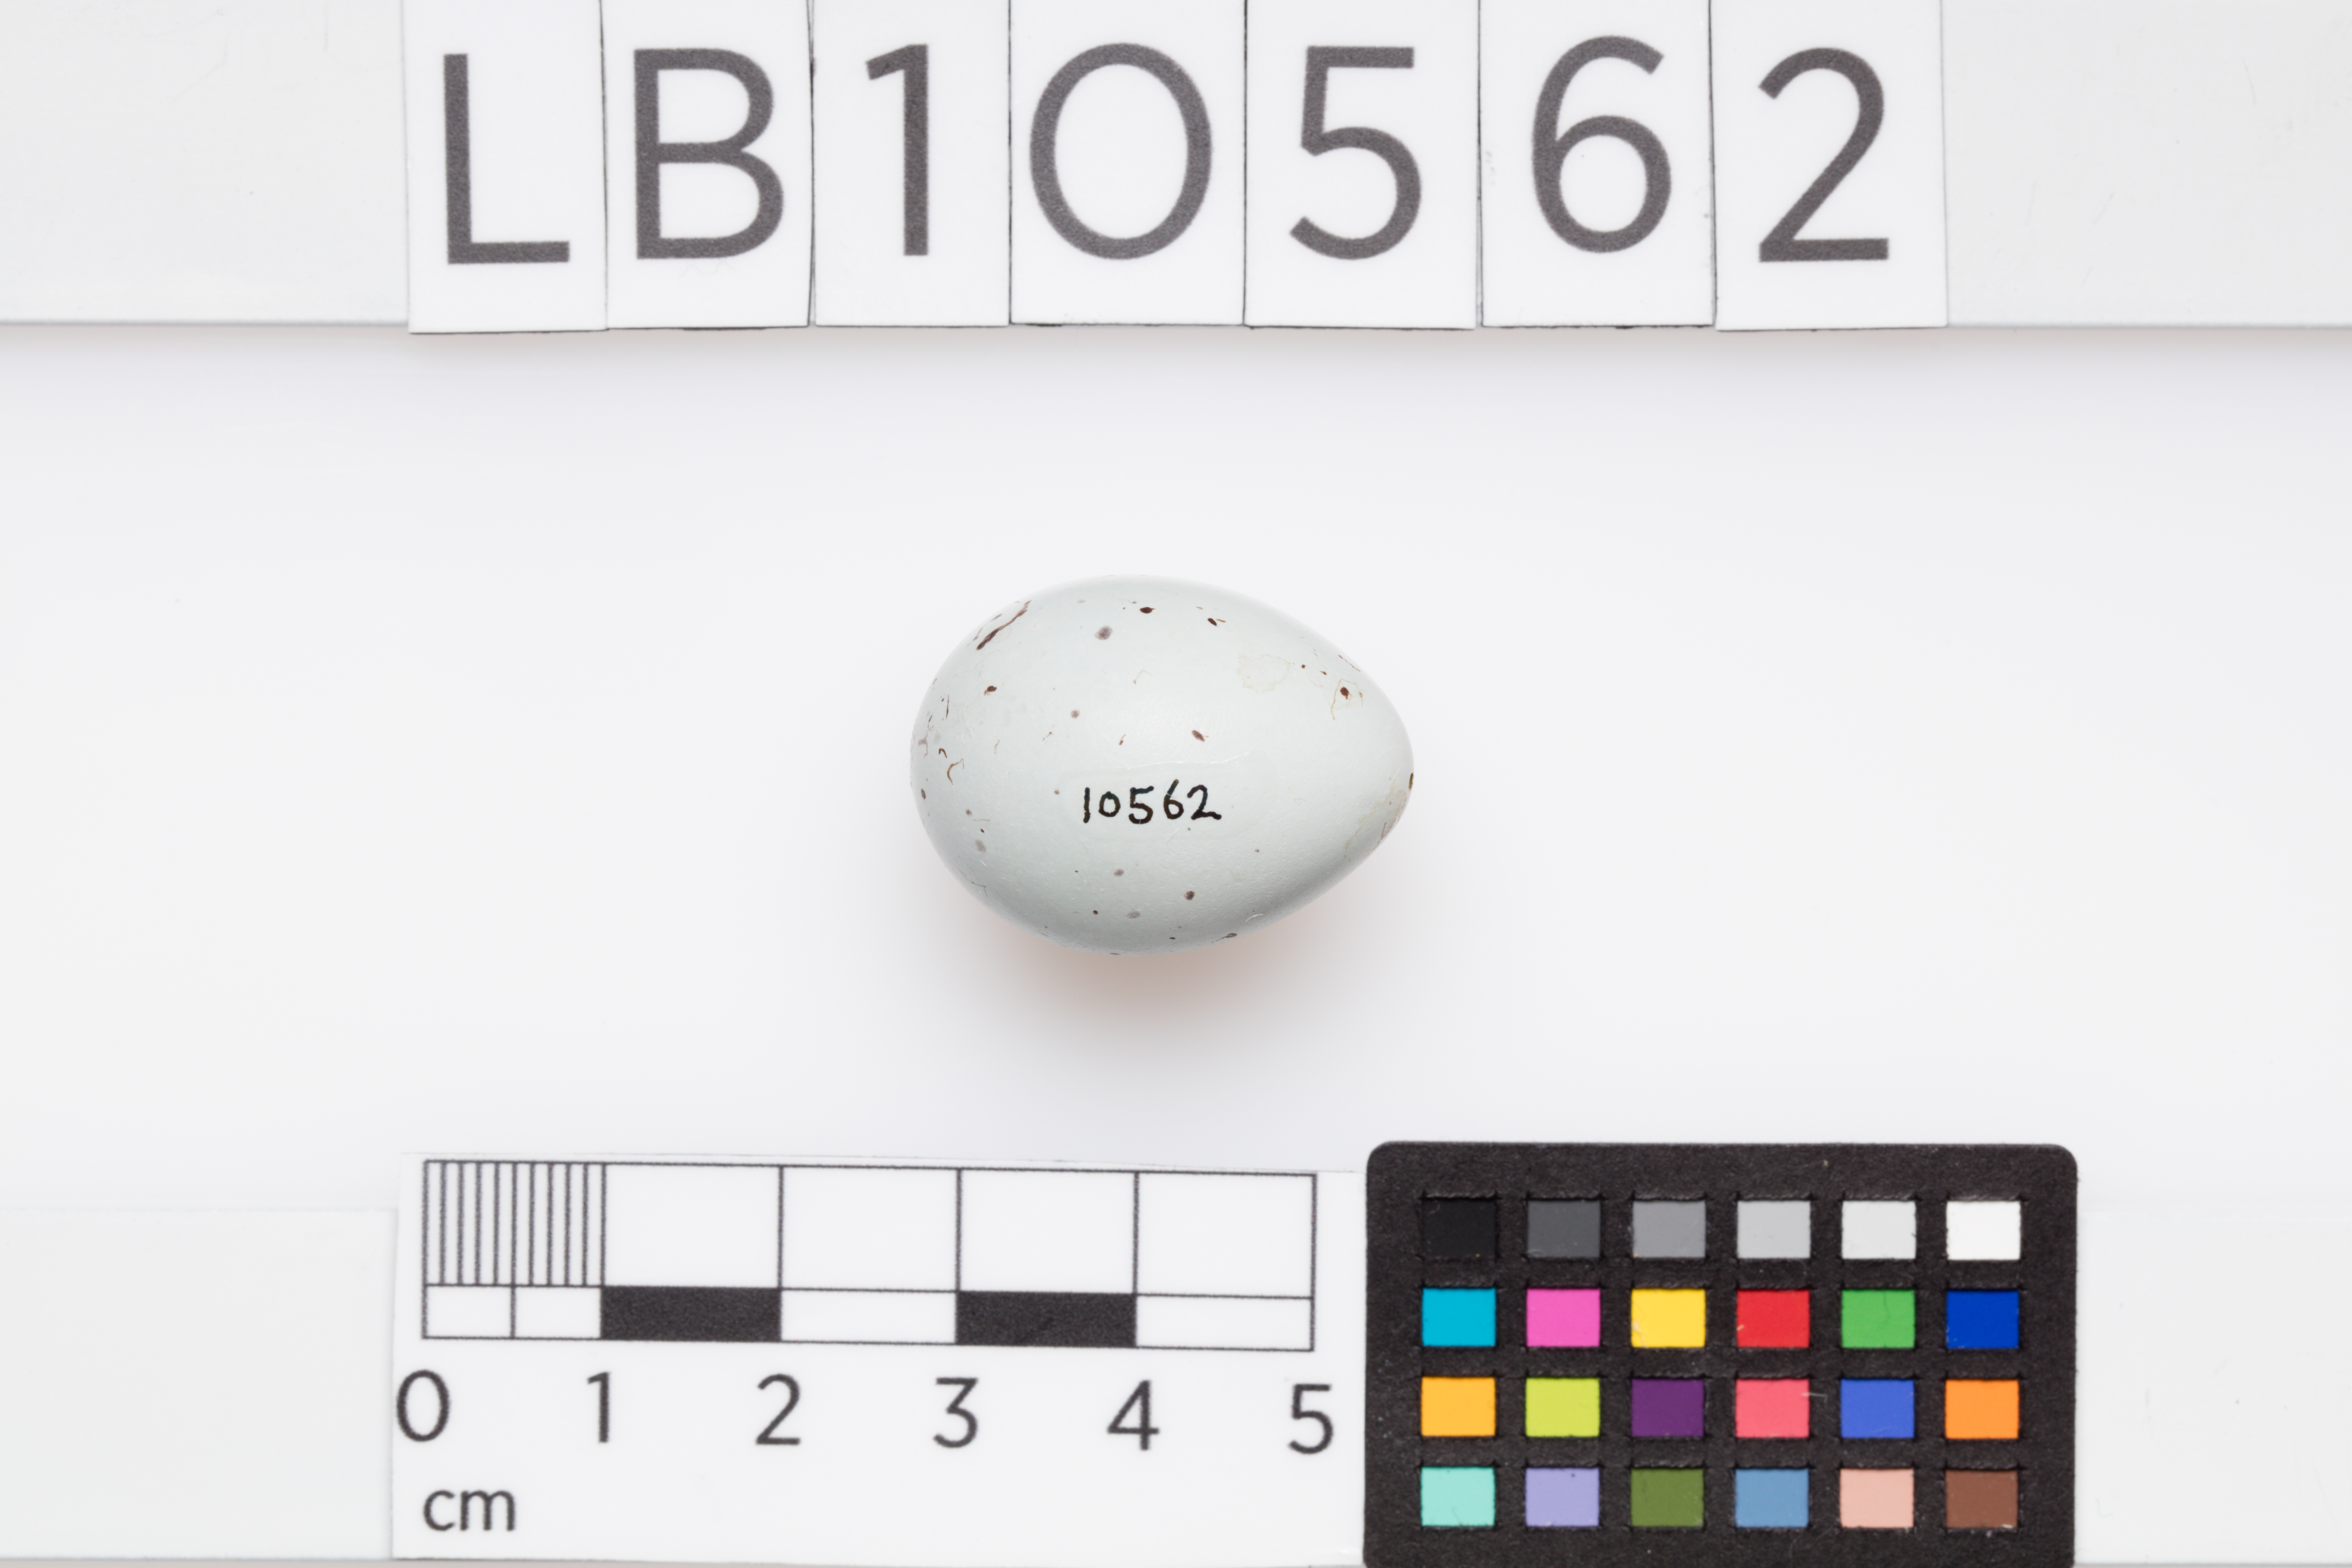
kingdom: Animalia
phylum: Chordata
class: Aves
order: Passeriformes
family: Turdidae
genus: Turdus
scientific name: Turdus philomelos
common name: Song thrush
